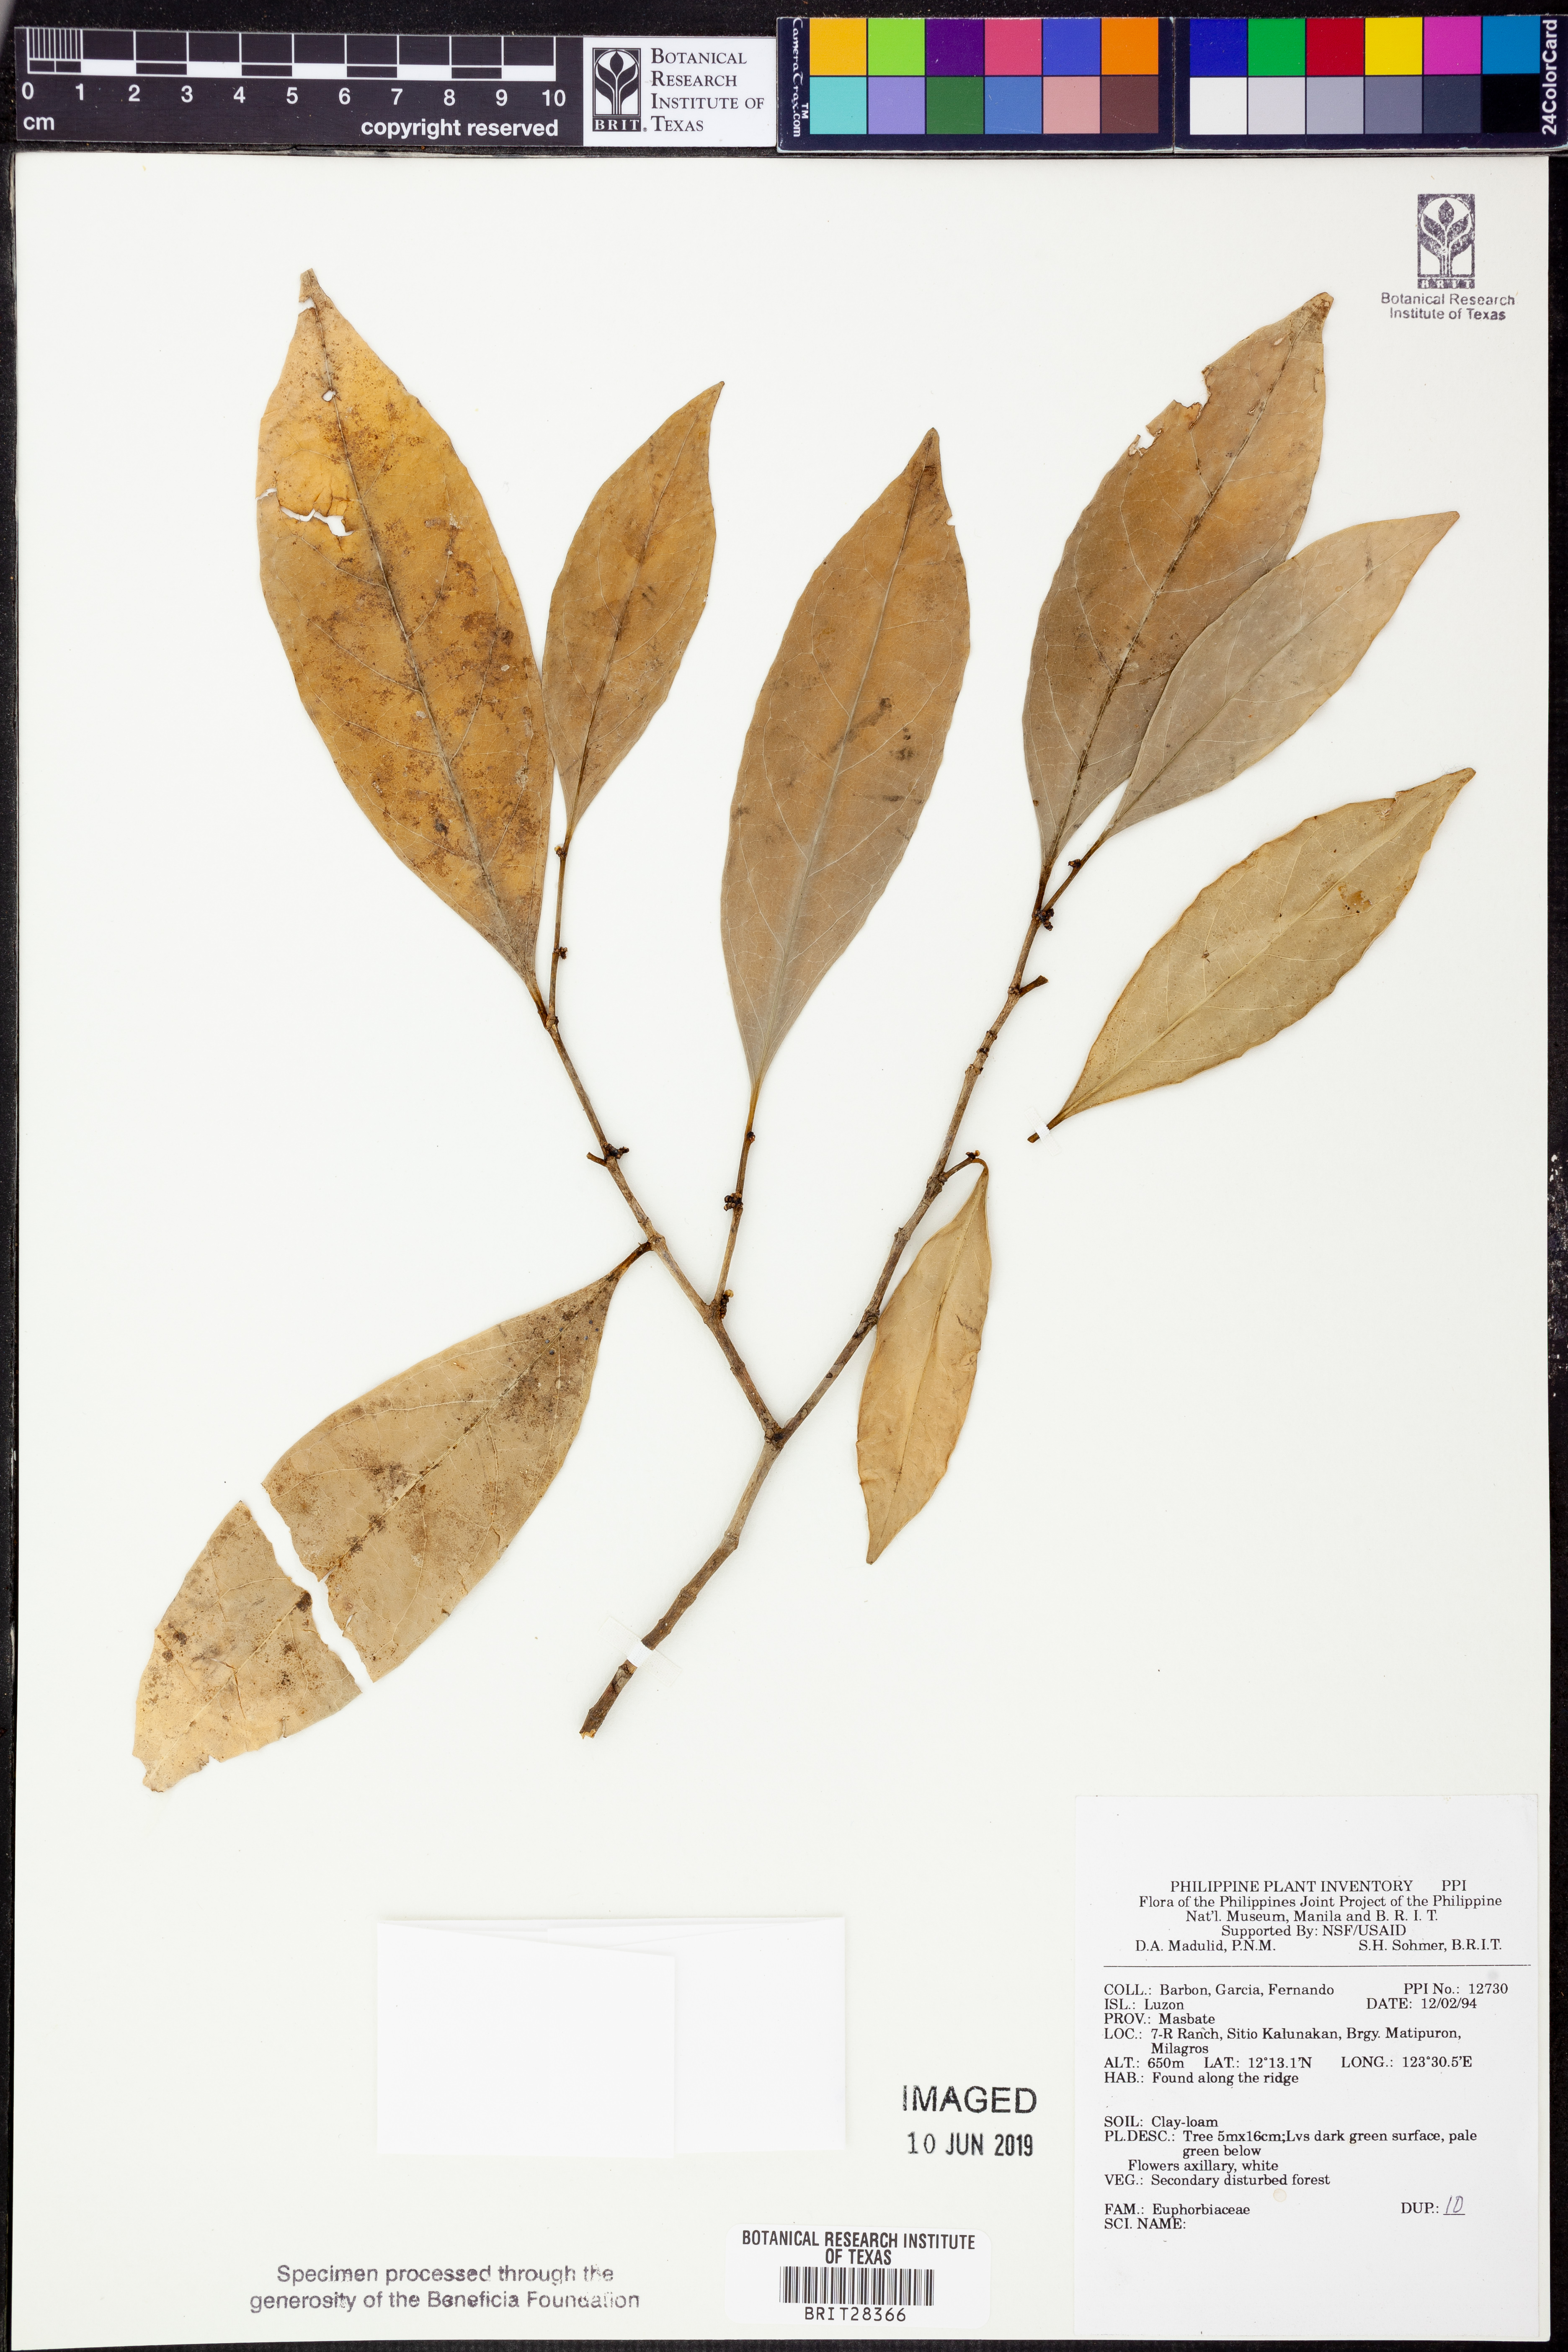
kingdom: Plantae
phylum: Tracheophyta
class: Magnoliopsida
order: Malpighiales
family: Euphorbiaceae
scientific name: Euphorbiaceae
